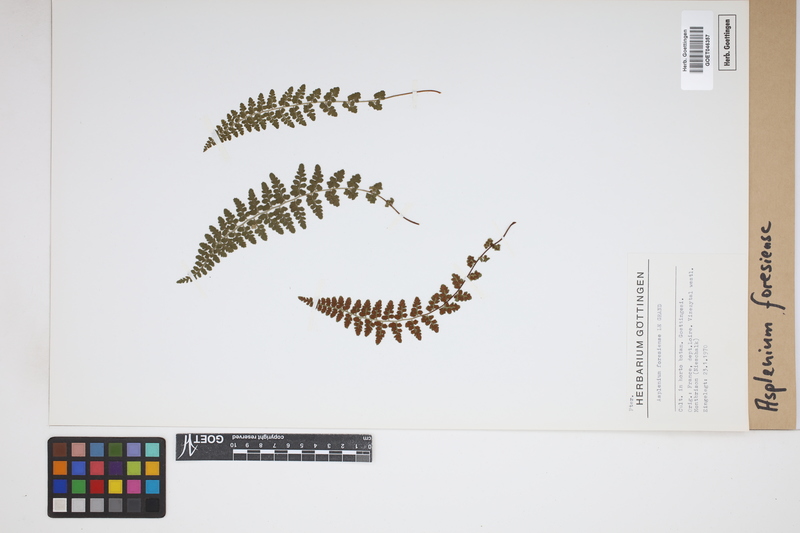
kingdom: Plantae
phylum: Tracheophyta
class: Polypodiopsida
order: Polypodiales
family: Aspleniaceae
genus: Asplenium
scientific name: Asplenium foresiense
